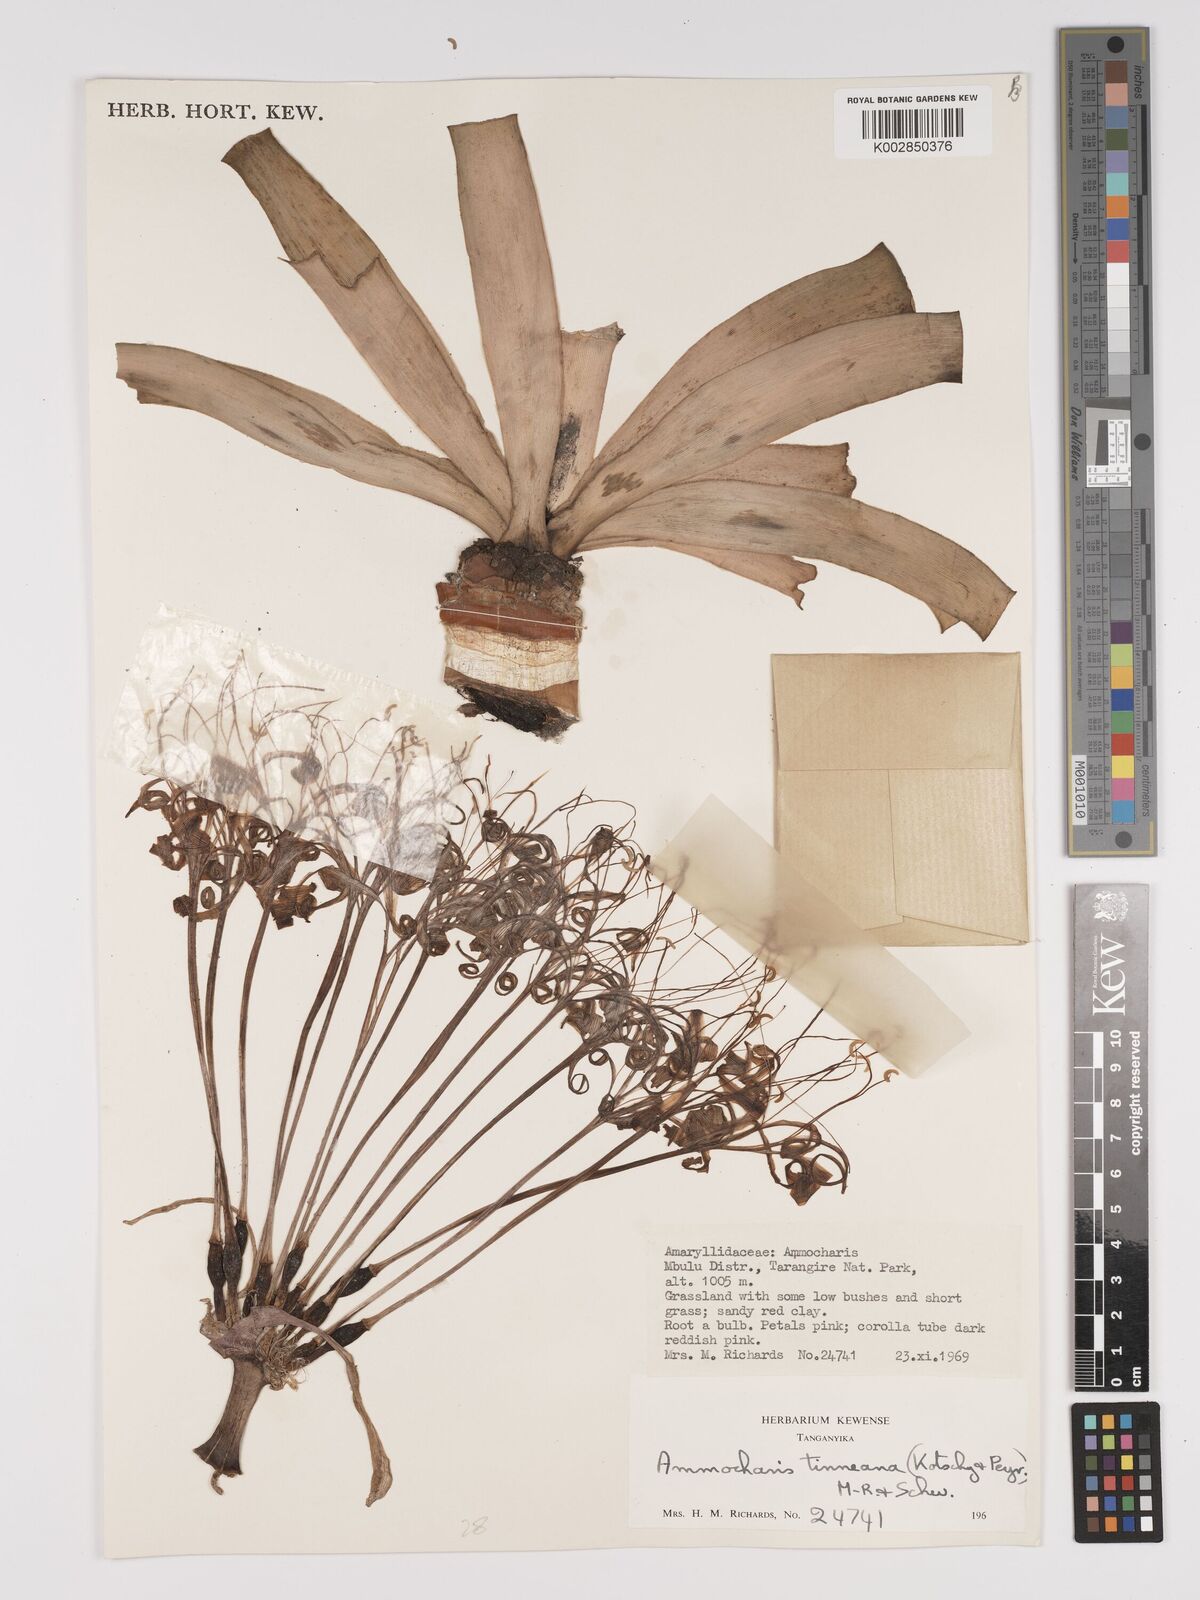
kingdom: Plantae
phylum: Tracheophyta
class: Liliopsida
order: Asparagales
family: Amaryllidaceae
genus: Ammocharis
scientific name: Ammocharis tinneana
